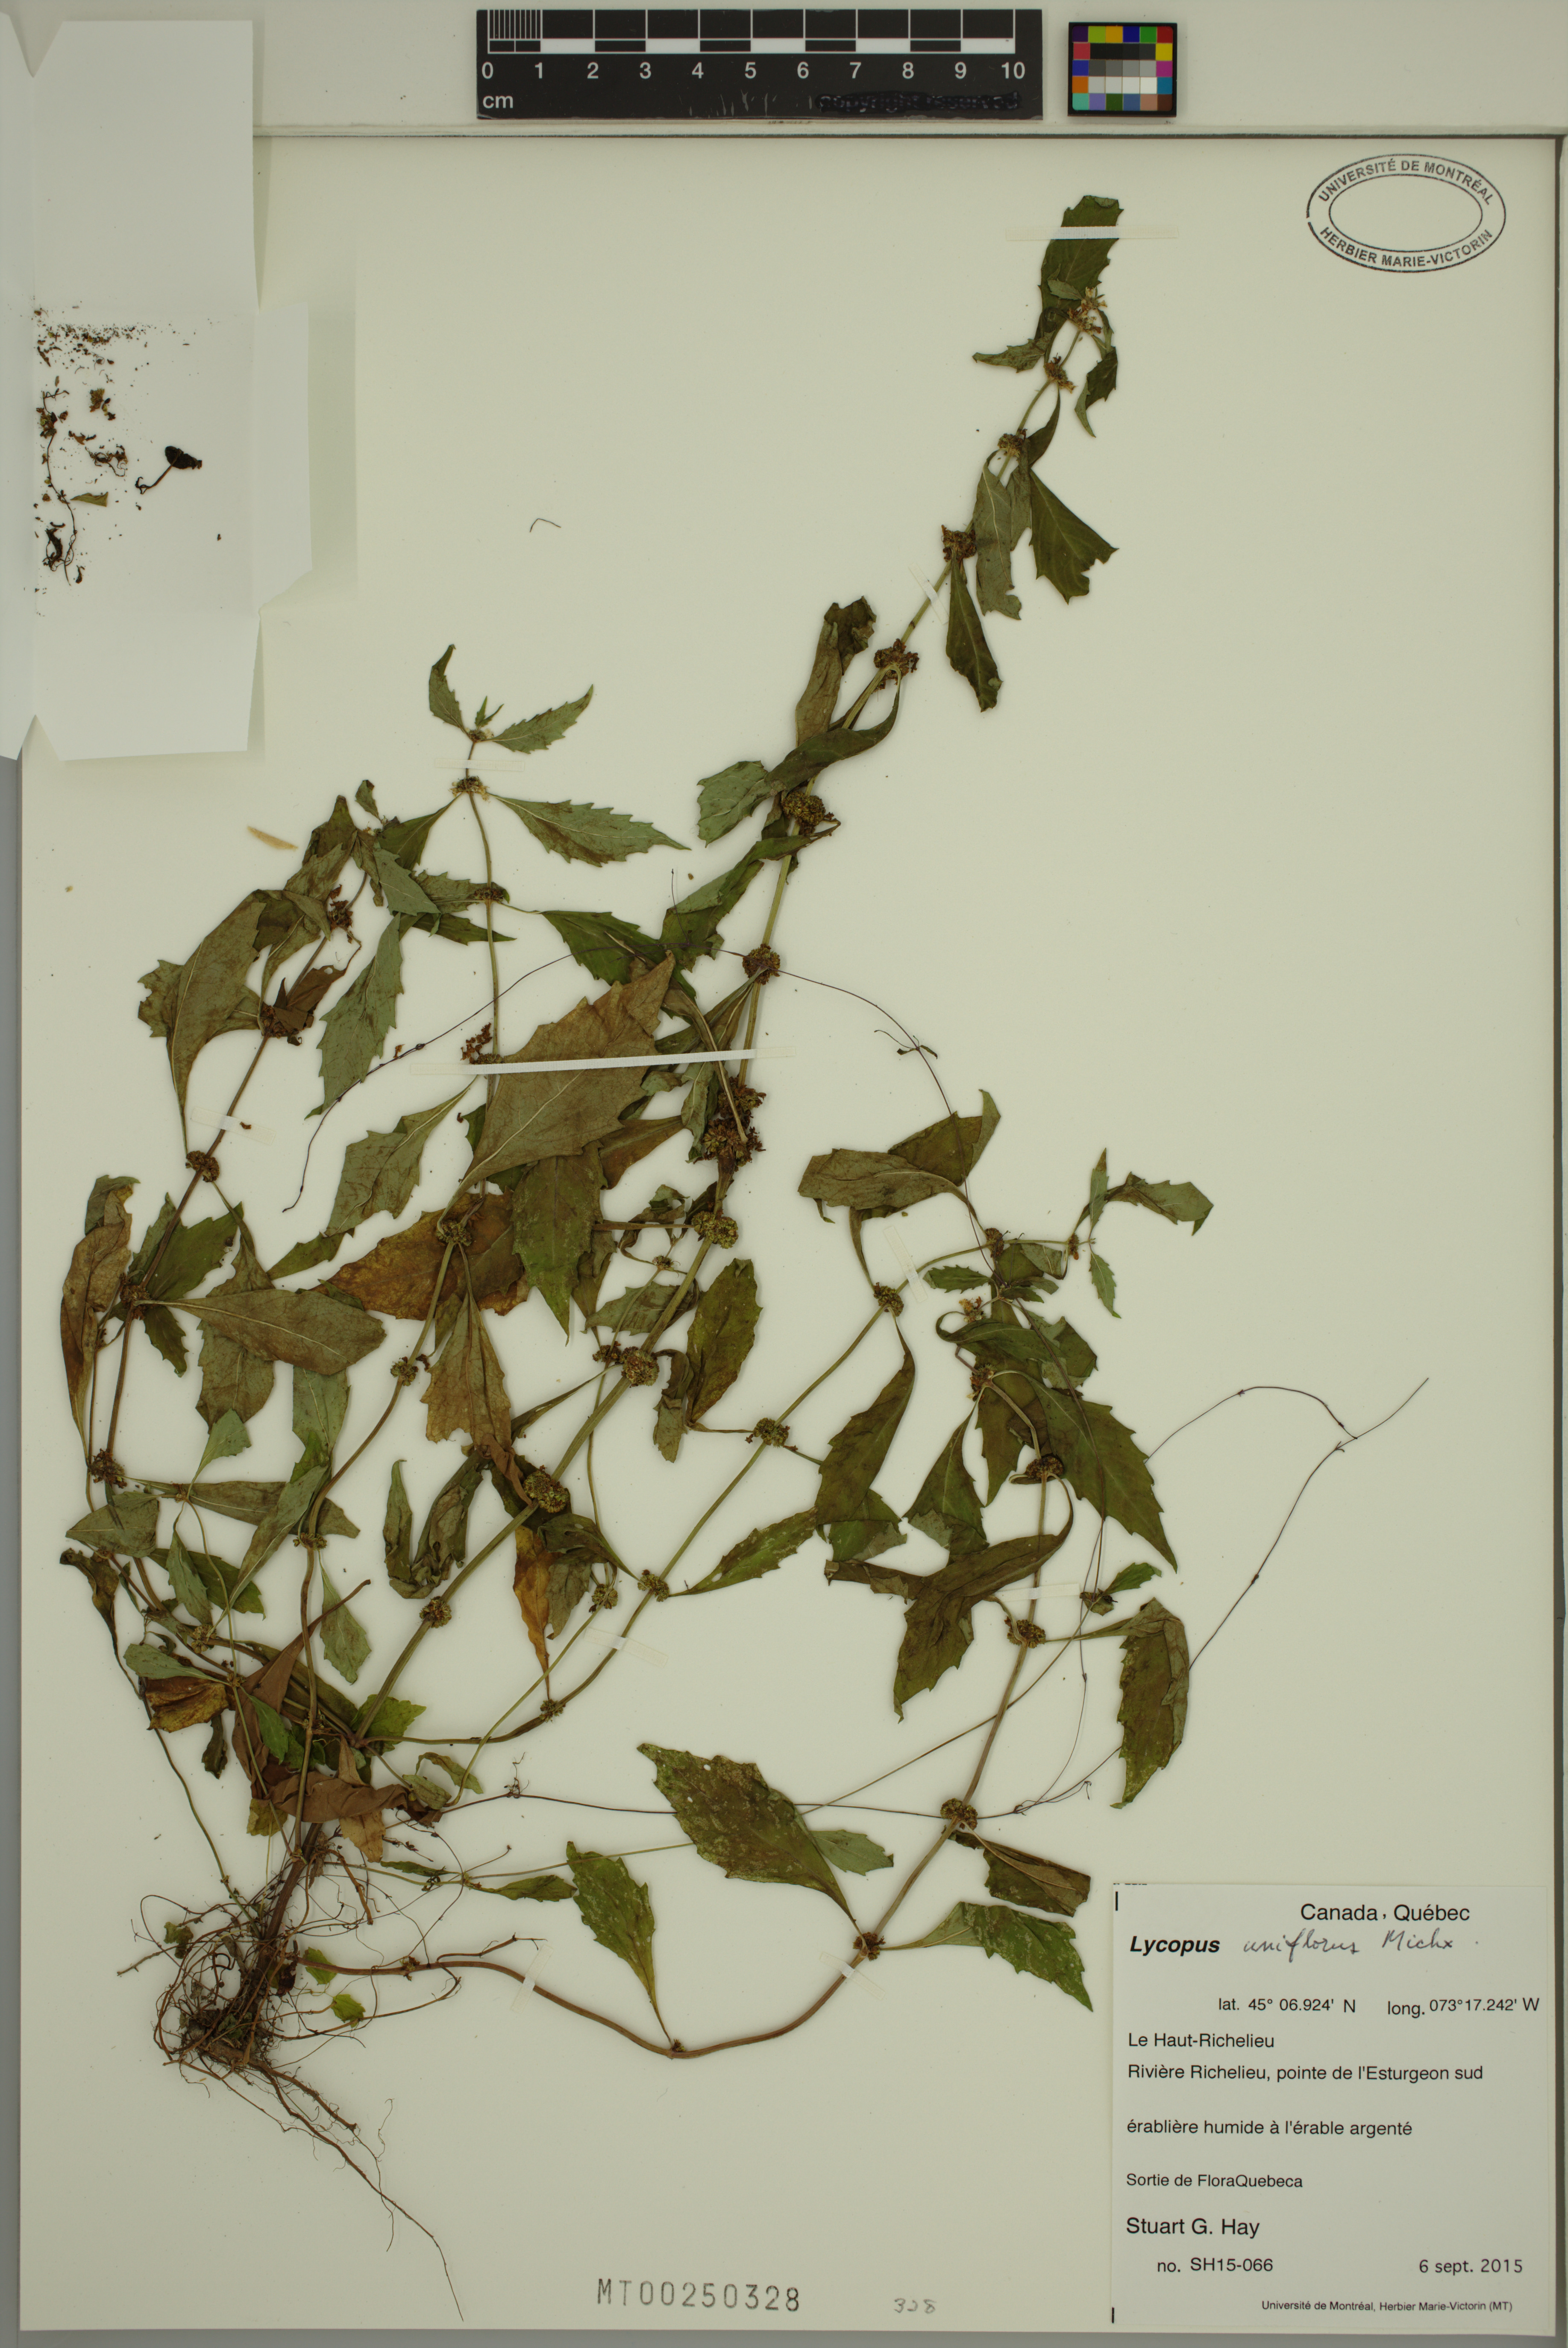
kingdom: Plantae
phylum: Tracheophyta
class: Magnoliopsida
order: Lamiales
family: Lamiaceae
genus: Lycopus
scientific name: Lycopus uniflorus
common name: Northern bugleweed
